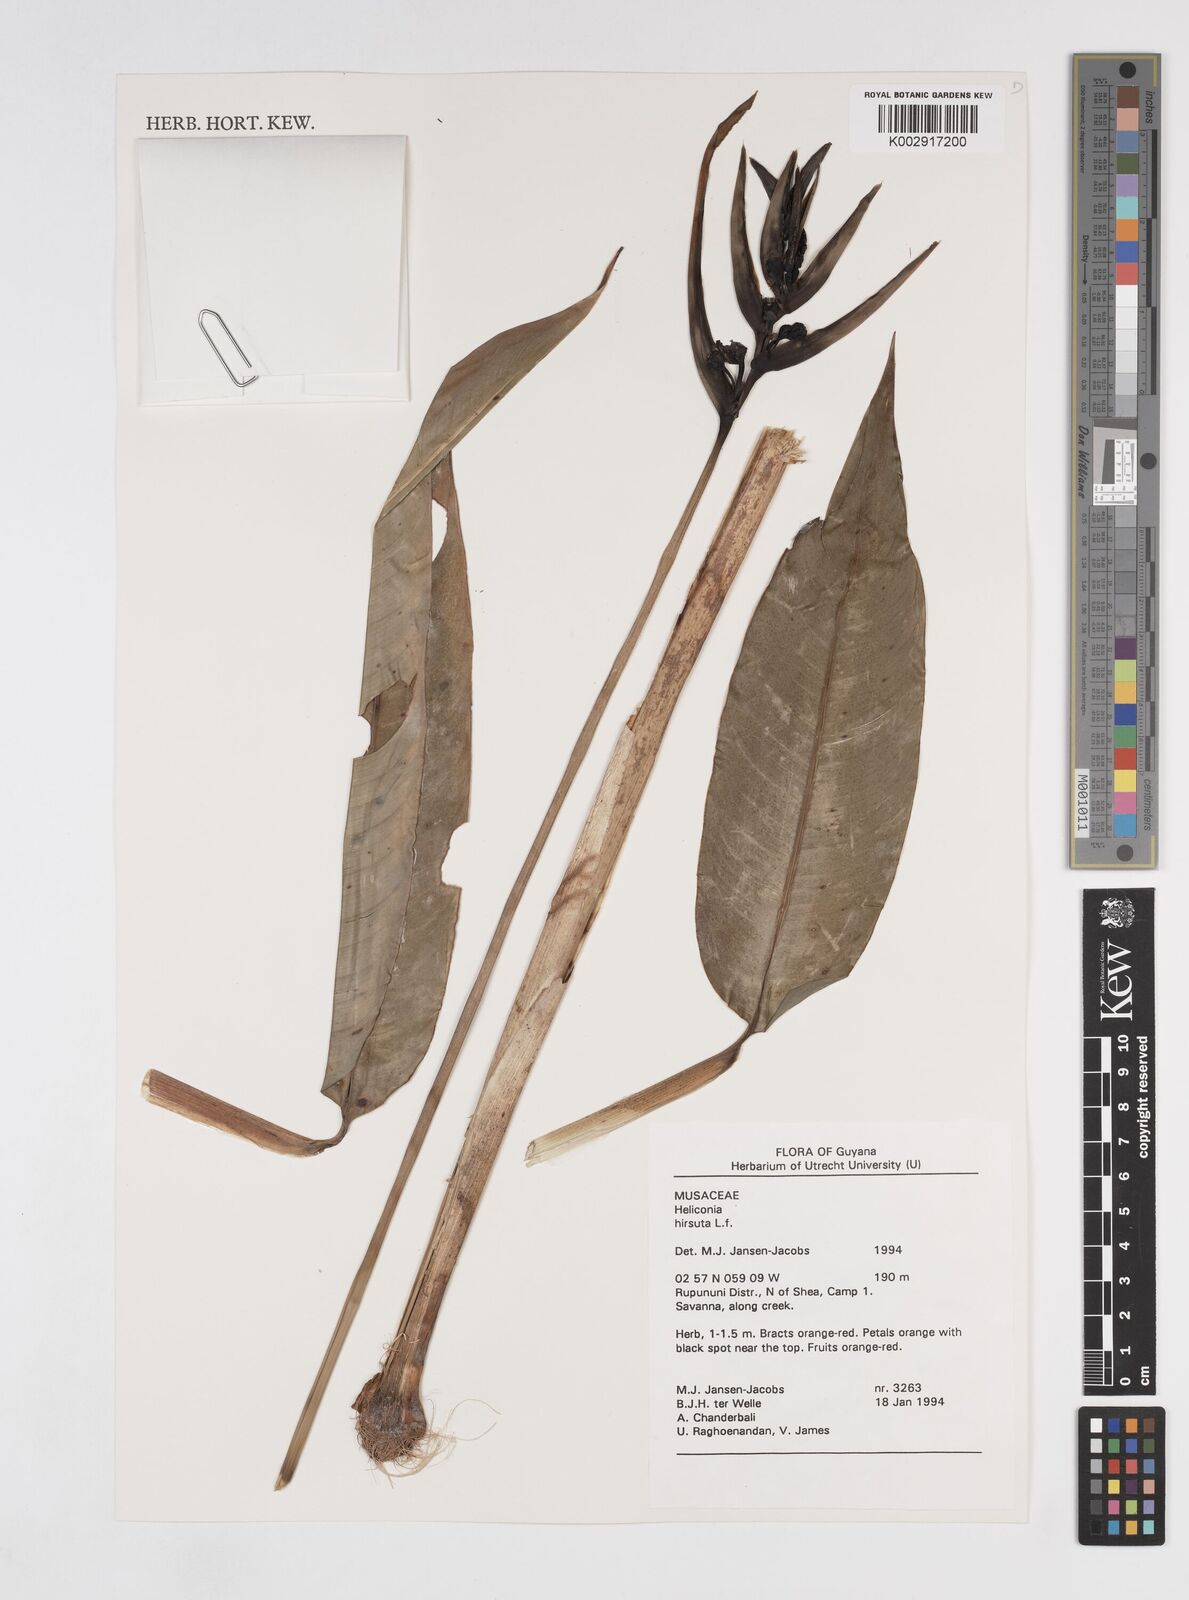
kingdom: Plantae
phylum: Tracheophyta
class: Liliopsida
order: Zingiberales
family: Heliconiaceae
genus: Heliconia
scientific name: Heliconia hirsuta
